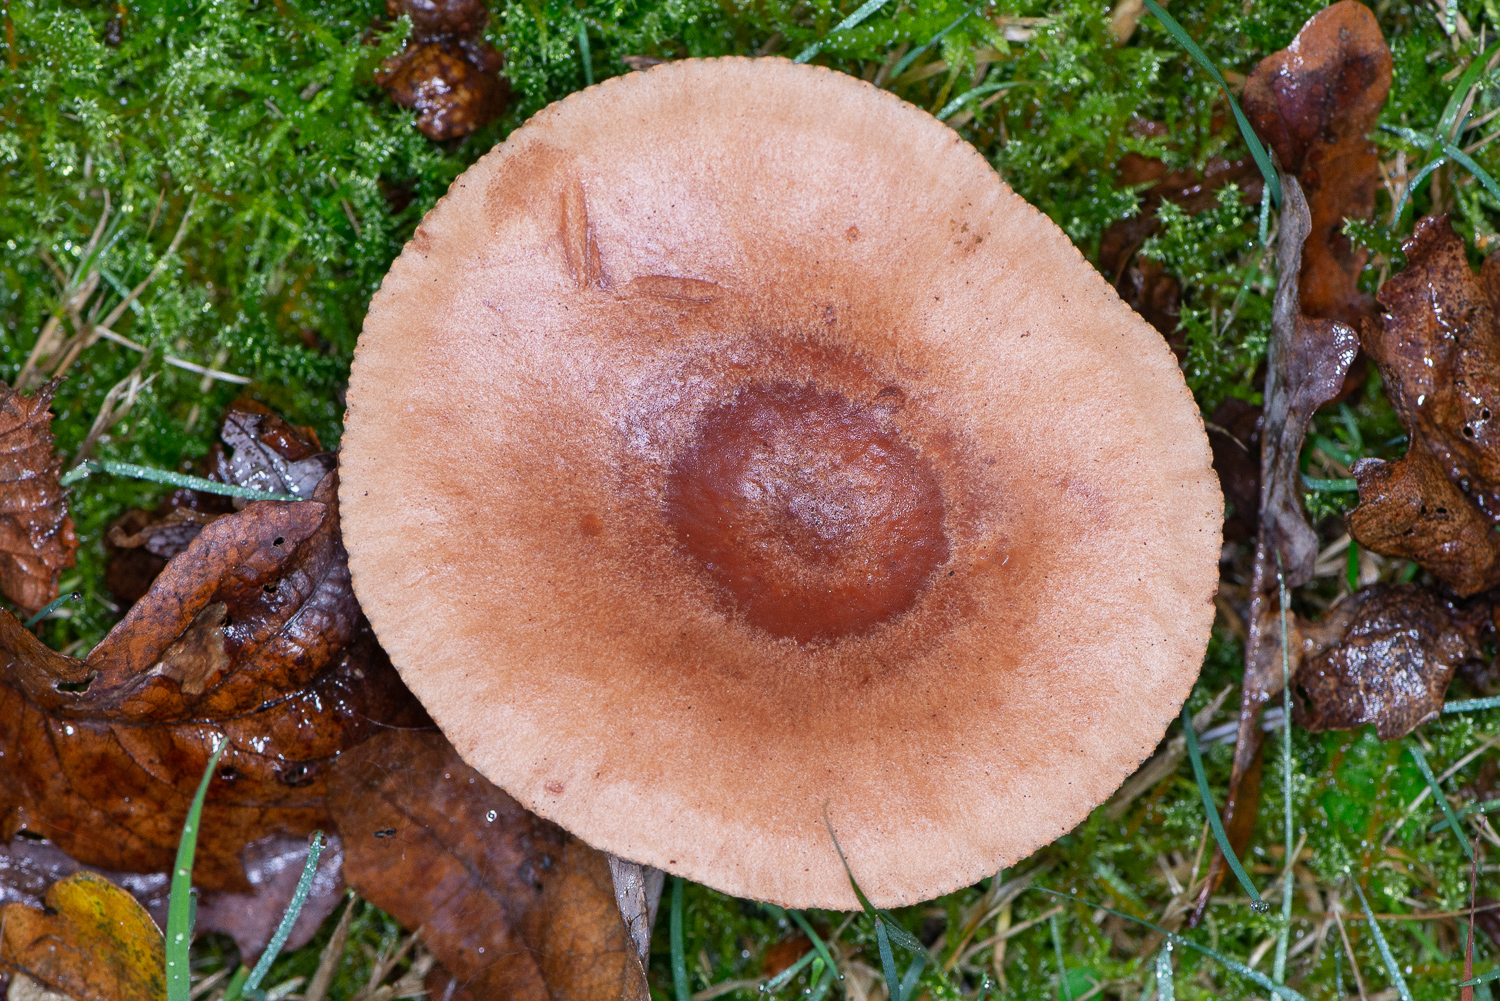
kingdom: Fungi
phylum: Basidiomycota
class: Agaricomycetes
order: Russulales
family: Russulaceae
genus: Lactarius
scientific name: Lactarius quietus
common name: ege-mælkehat
